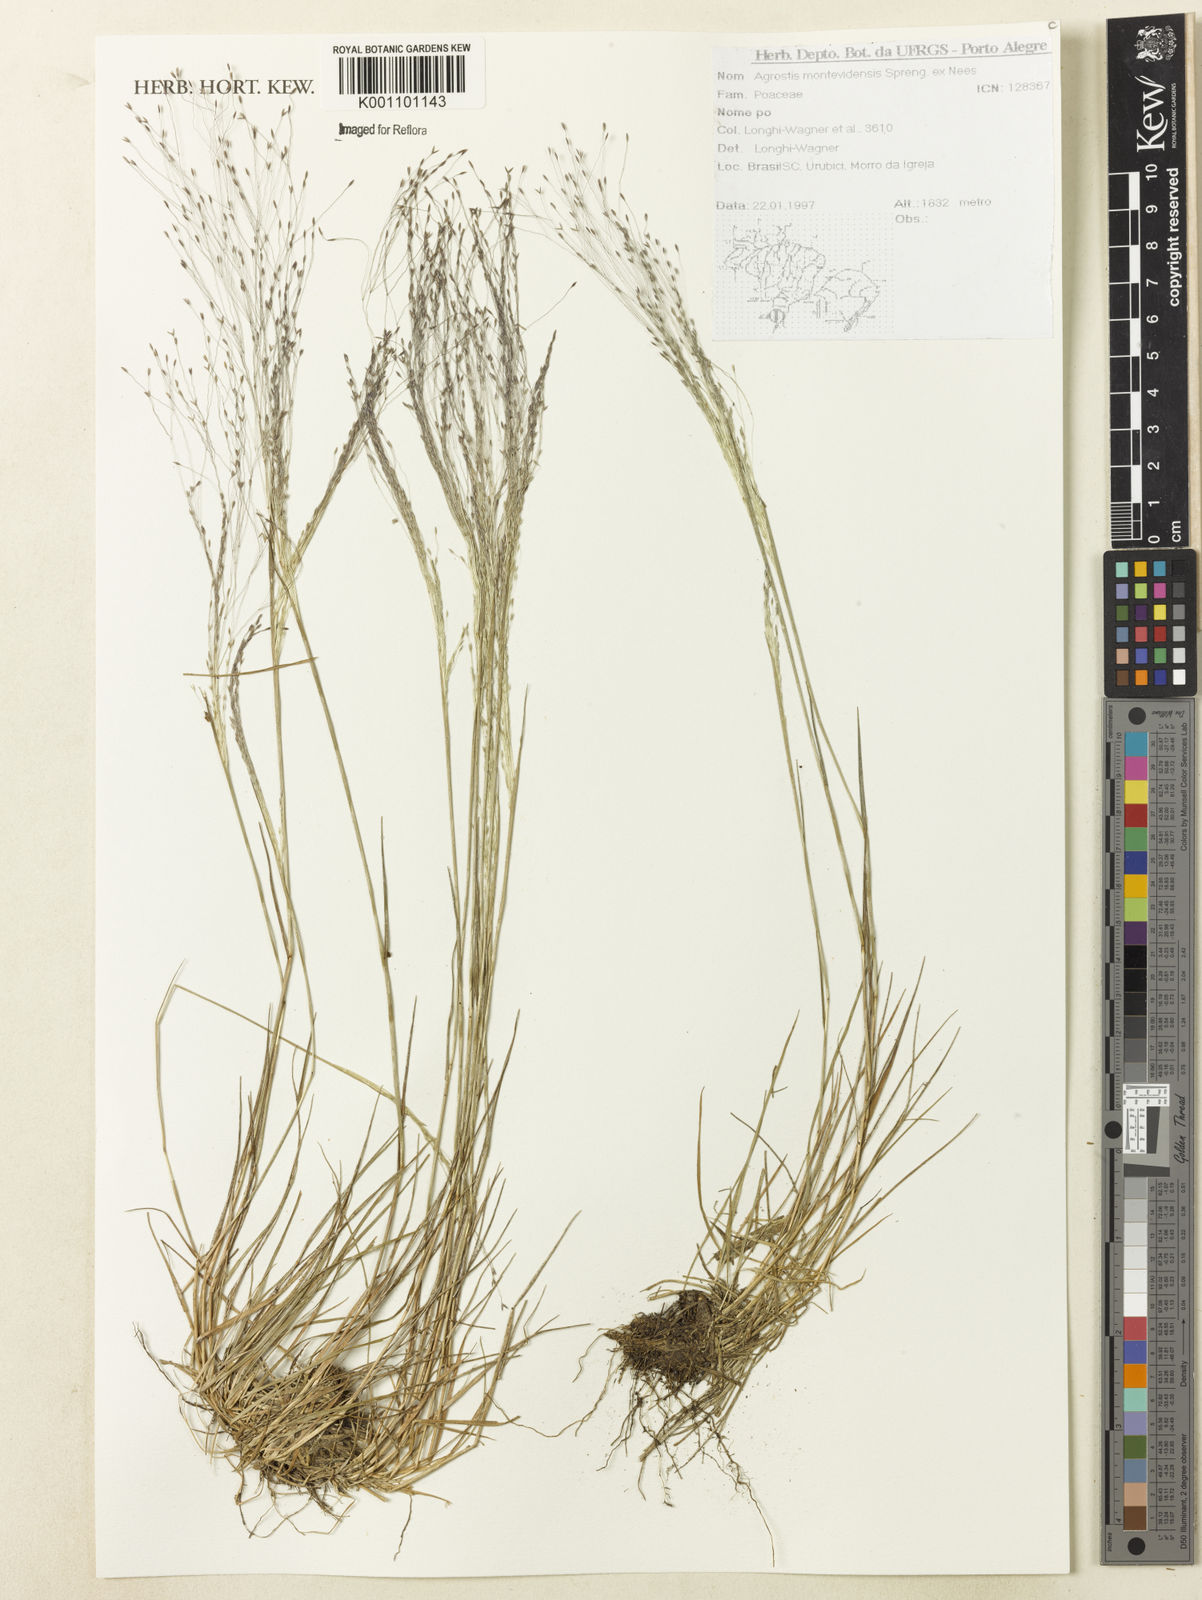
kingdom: Plantae
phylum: Tracheophyta
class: Liliopsida
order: Poales
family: Poaceae
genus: Agrostis
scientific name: Agrostis montevidensis
